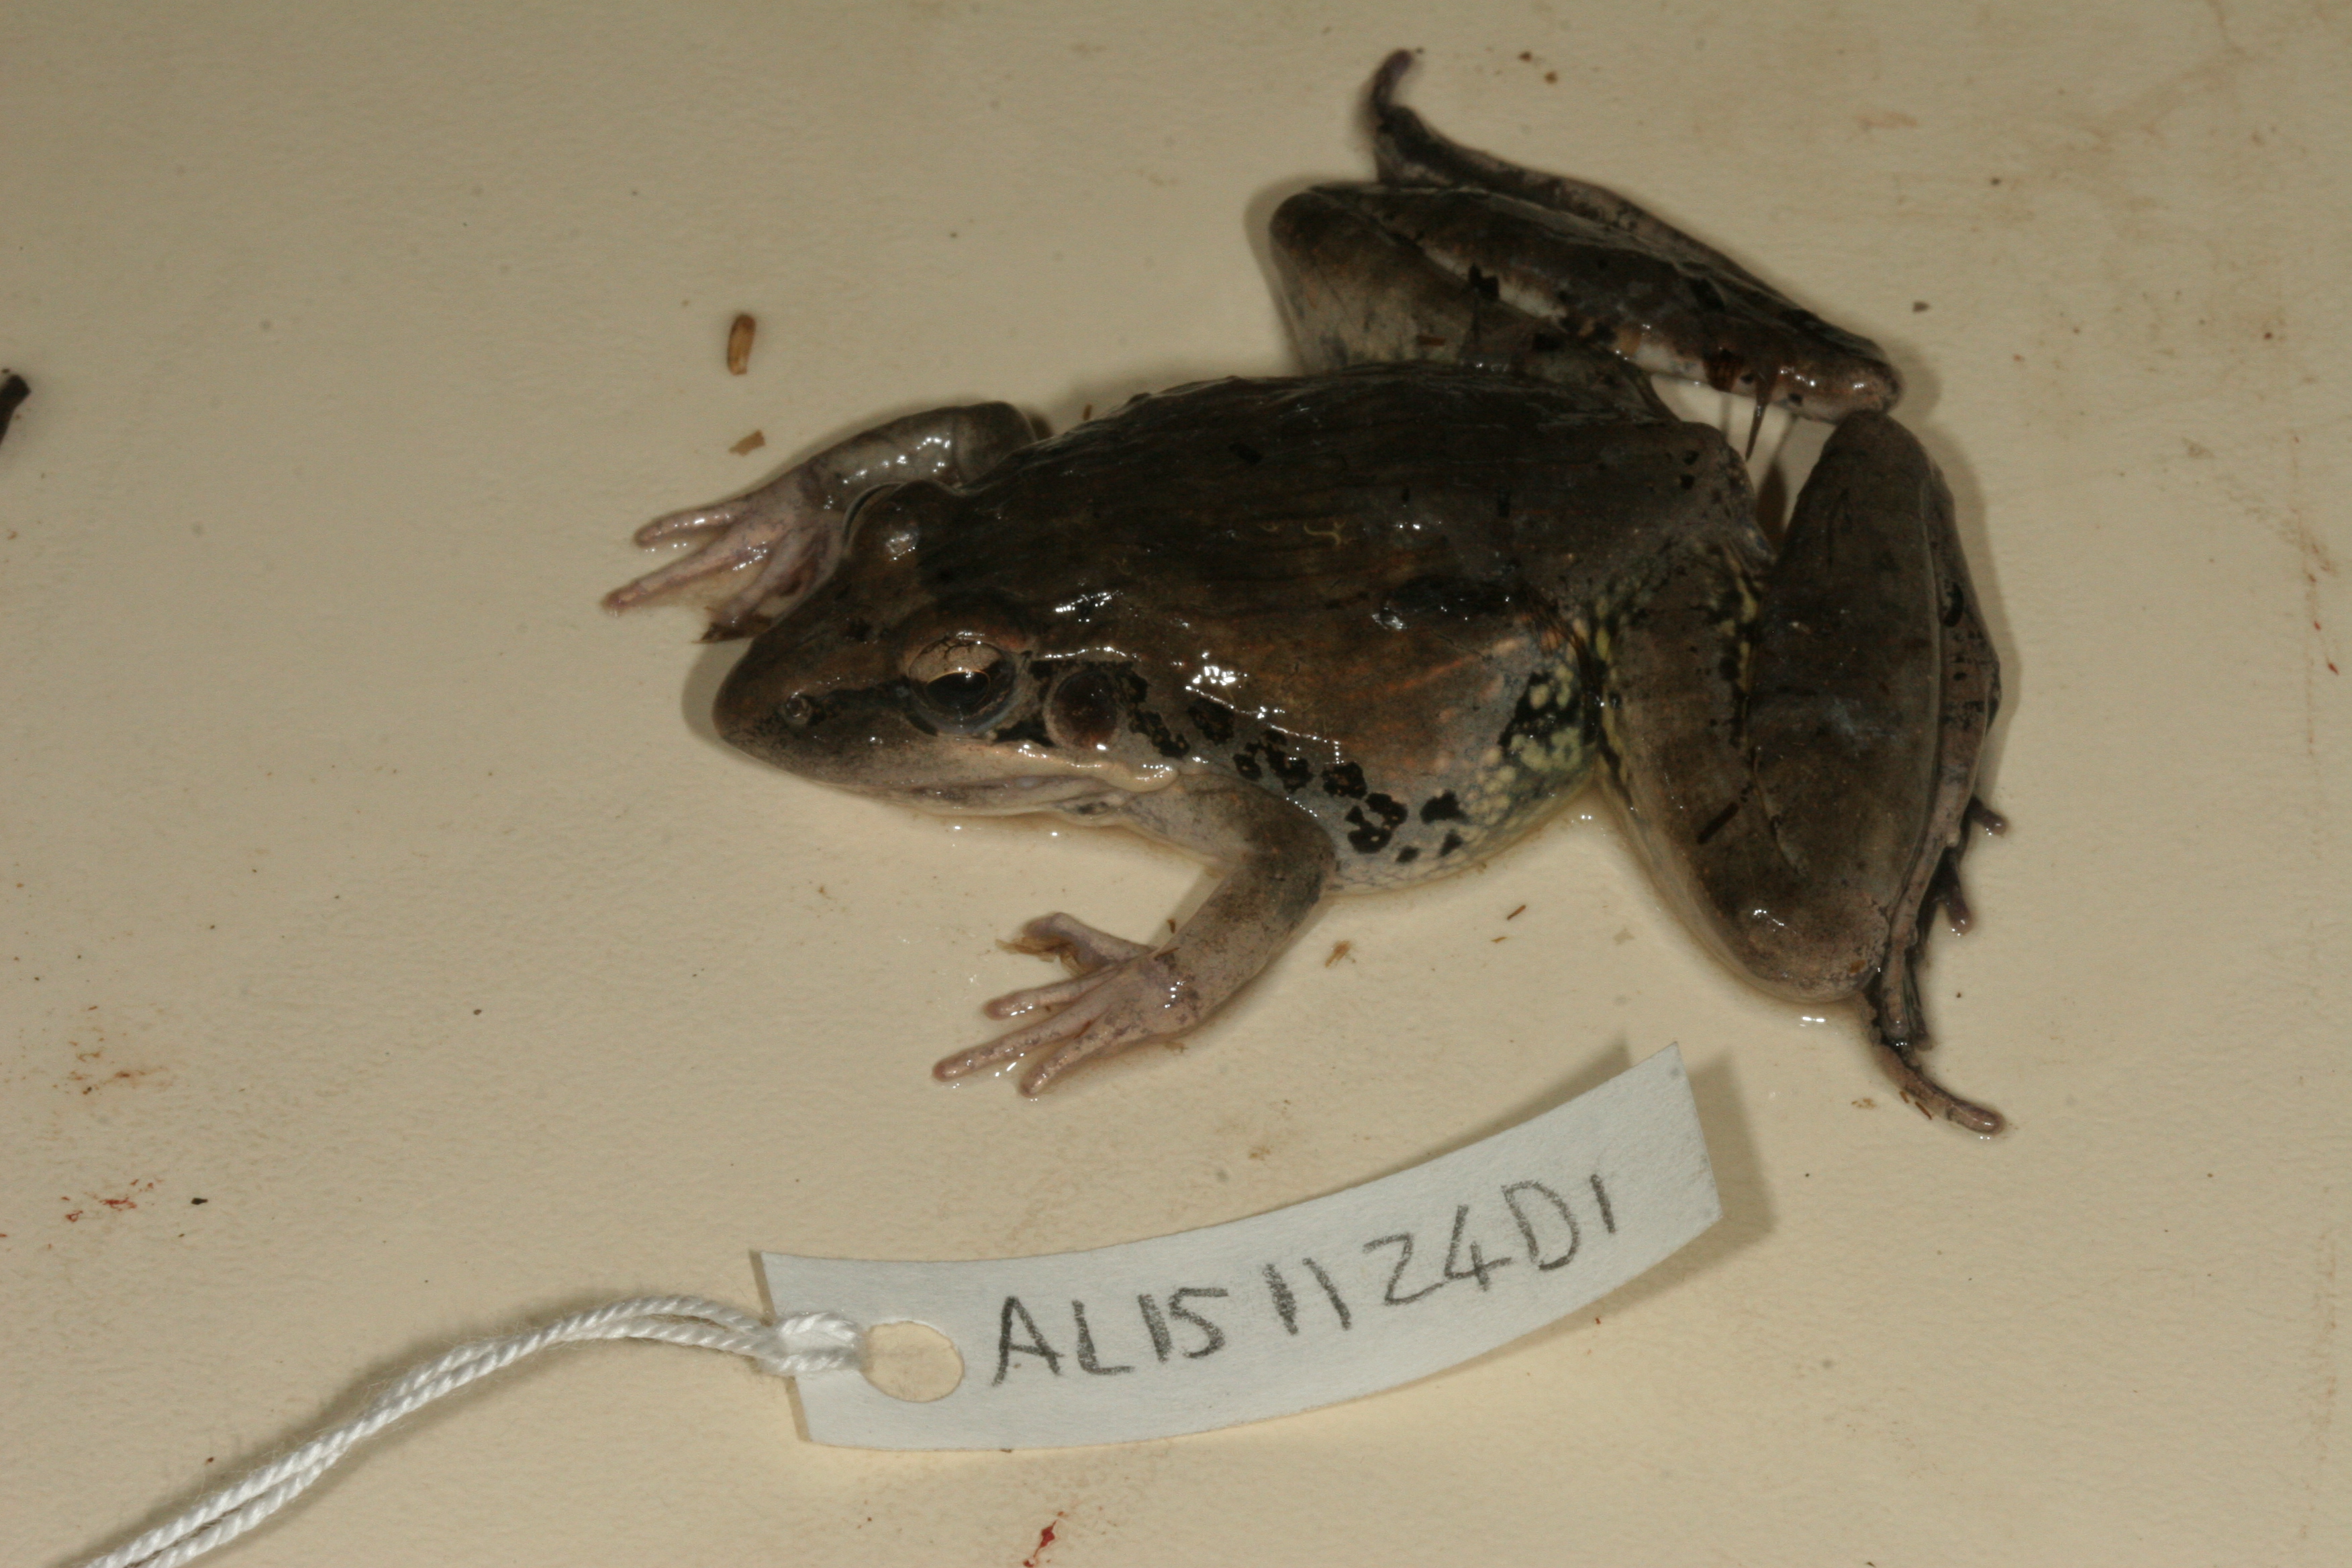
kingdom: Animalia
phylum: Chordata
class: Amphibia
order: Anura
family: Ptychadenidae
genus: Ptychadena
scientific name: Ptychadena oxyrhynchus
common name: Sharp-nosed ridged frog
